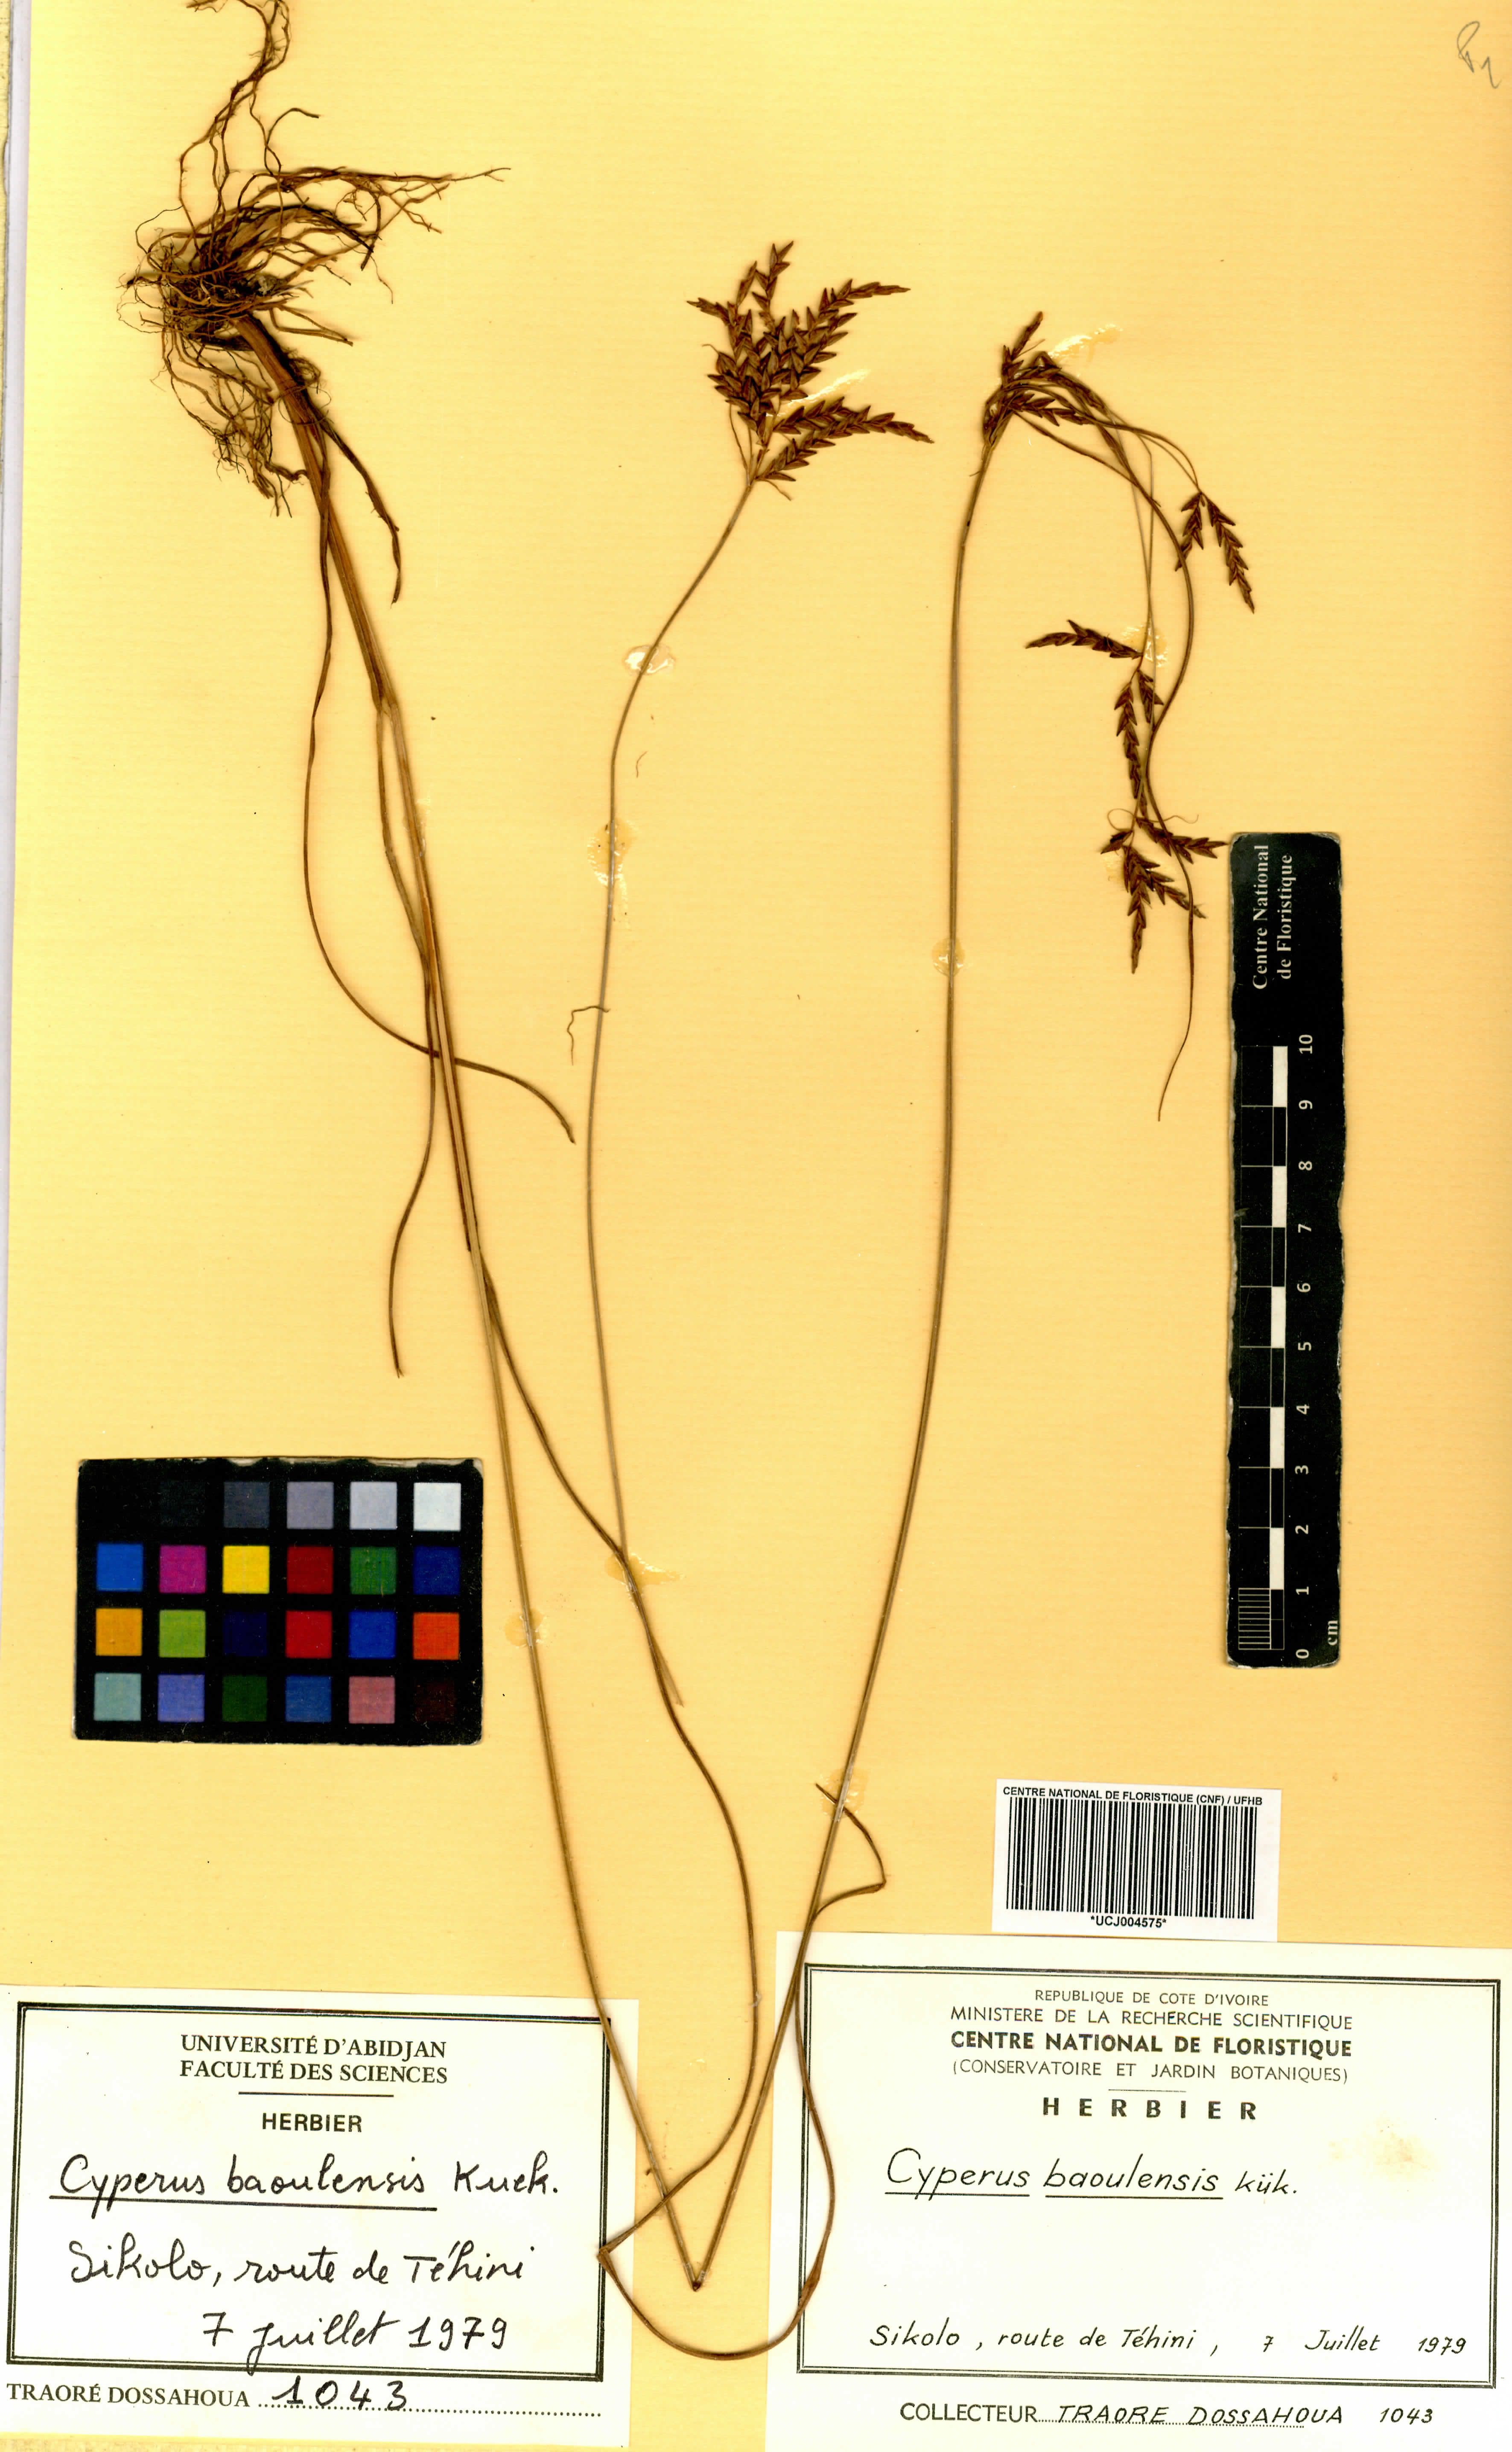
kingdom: Plantae
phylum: Tracheophyta
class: Liliopsida
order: Poales
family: Cyperaceae
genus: Cyperus
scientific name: Cyperus baoulensis
